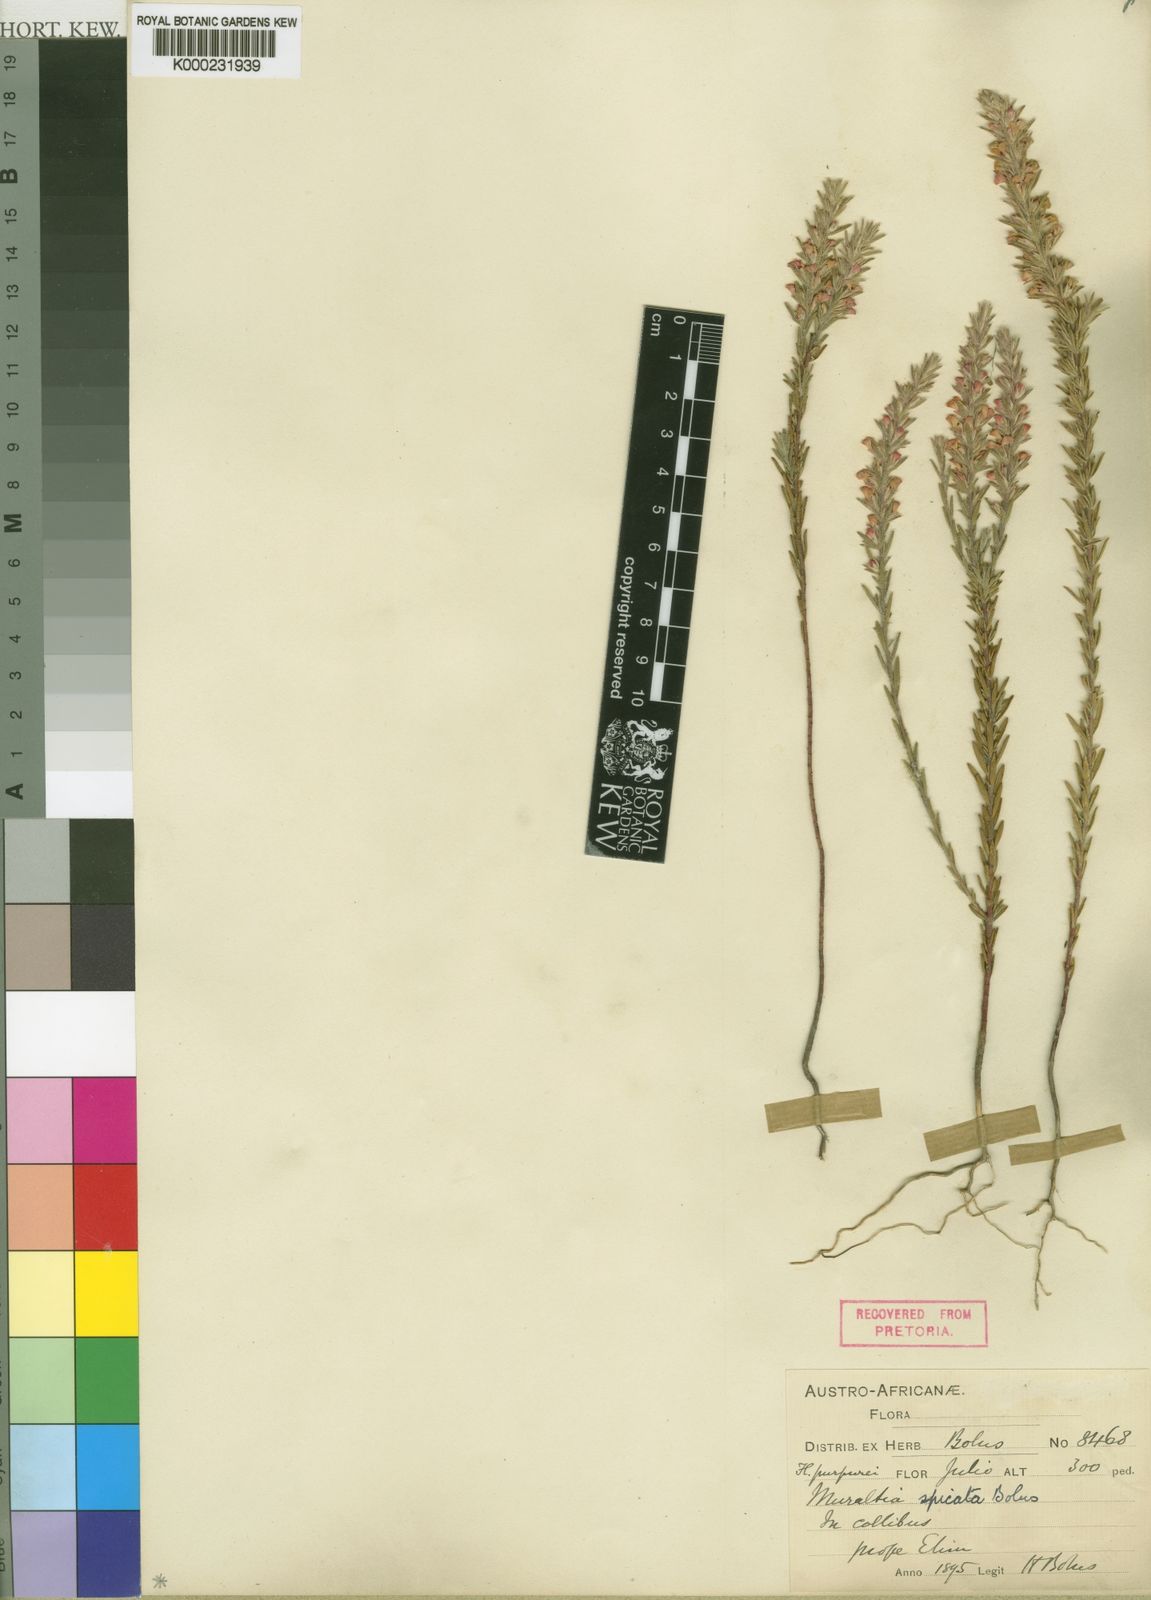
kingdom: Plantae
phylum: Tracheophyta
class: Magnoliopsida
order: Fabales
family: Polygalaceae
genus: Muraltia
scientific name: Muraltia spicata
